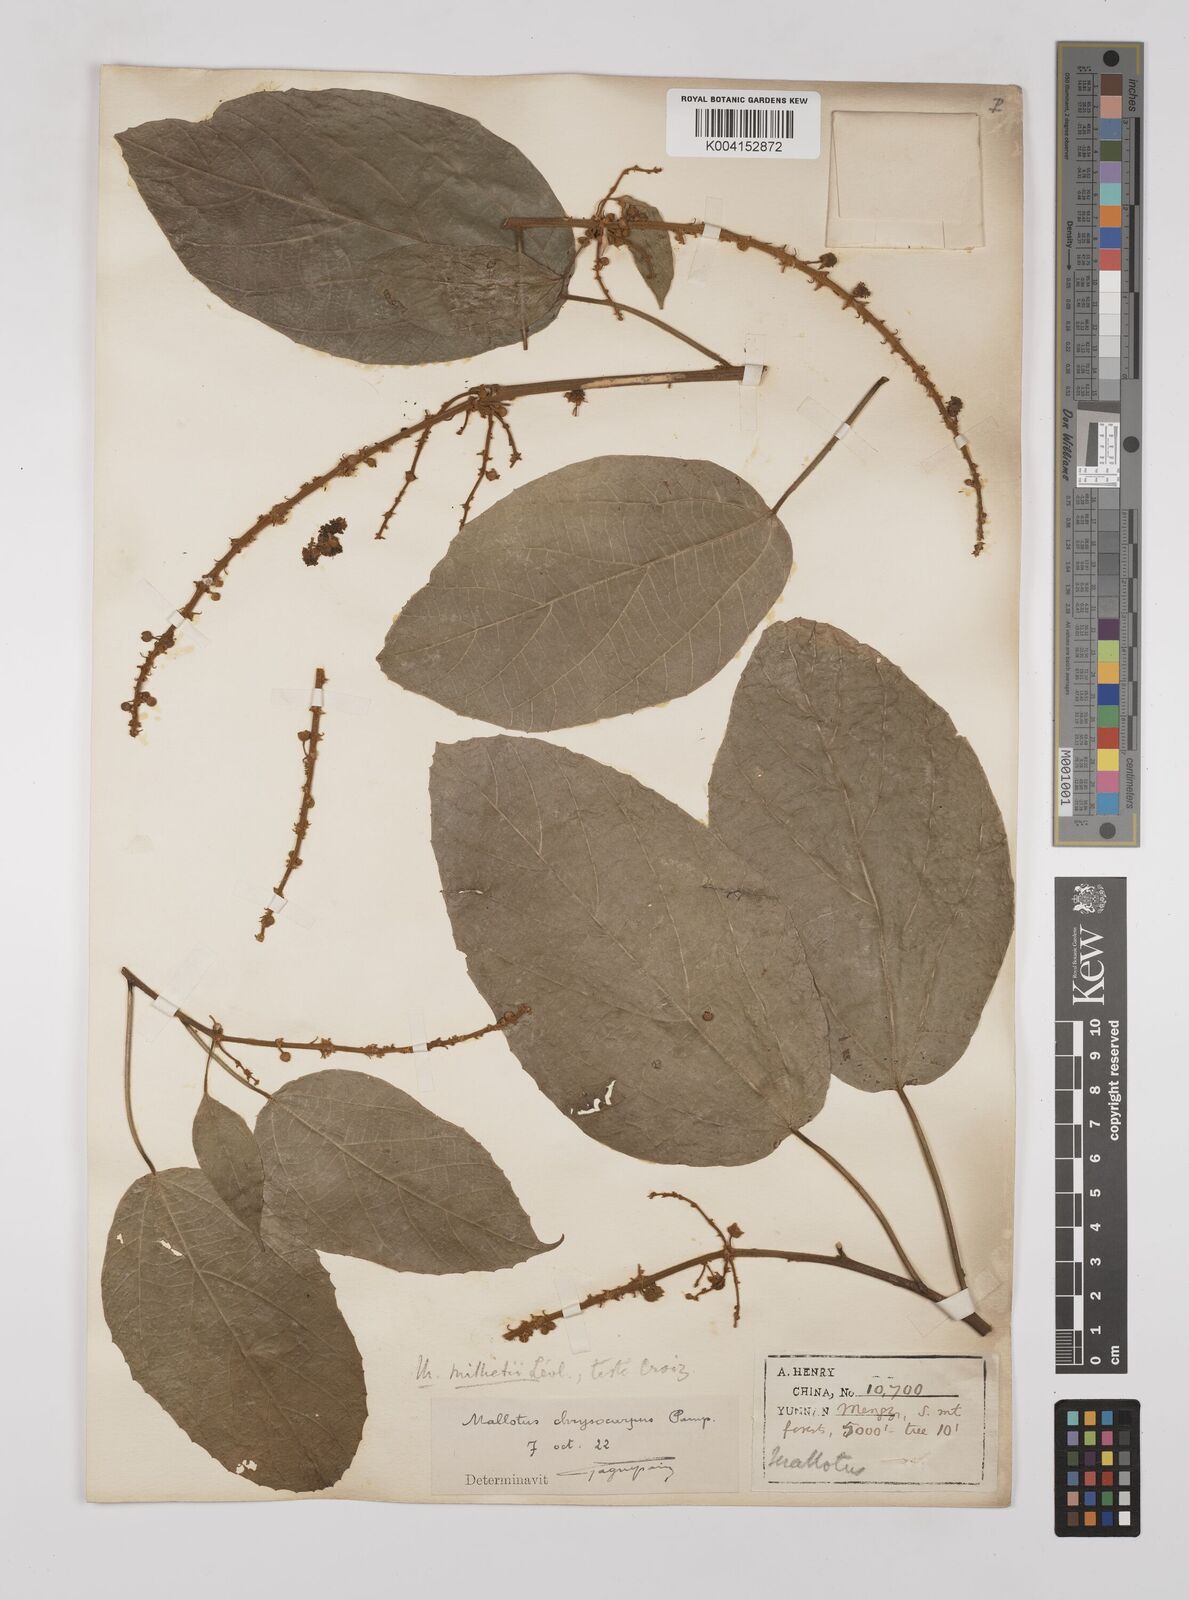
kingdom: Plantae
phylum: Tracheophyta
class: Magnoliopsida
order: Malpighiales
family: Euphorbiaceae
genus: Mallotus
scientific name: Mallotus millietii
